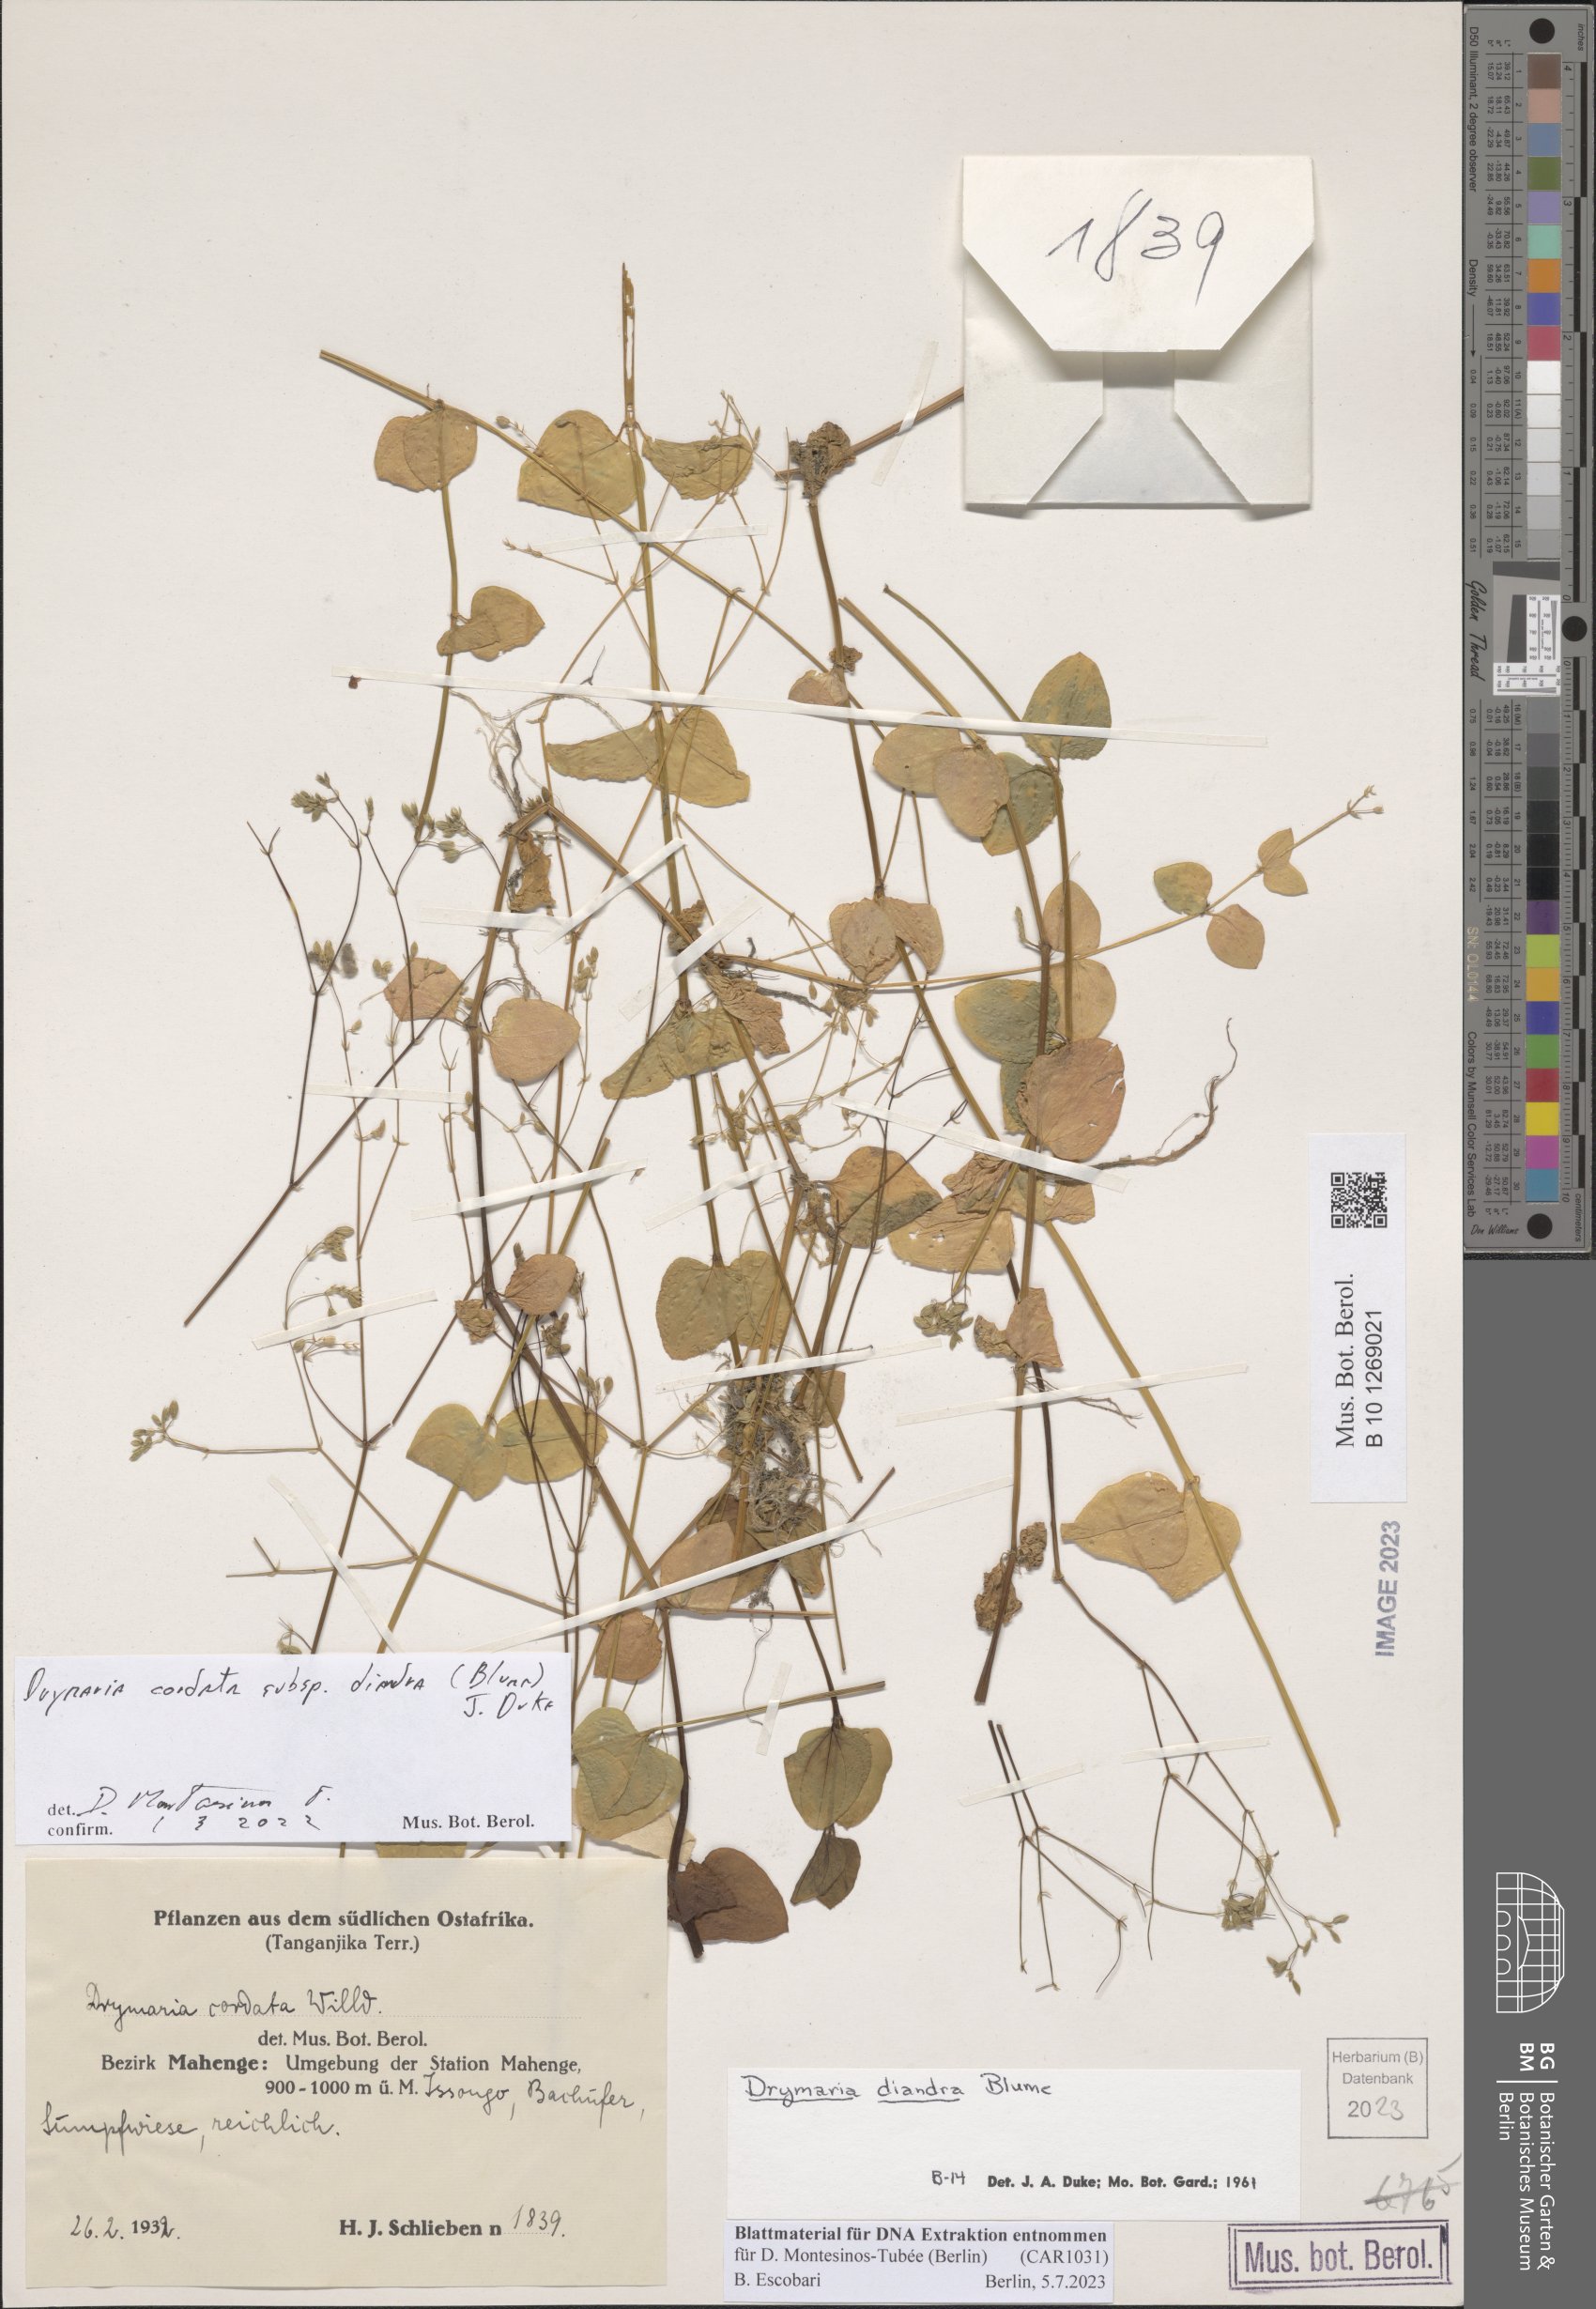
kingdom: Plantae
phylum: Tracheophyta
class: Magnoliopsida
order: Caryophyllales
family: Caryophyllaceae
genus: Drymaria
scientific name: Drymaria diandra
